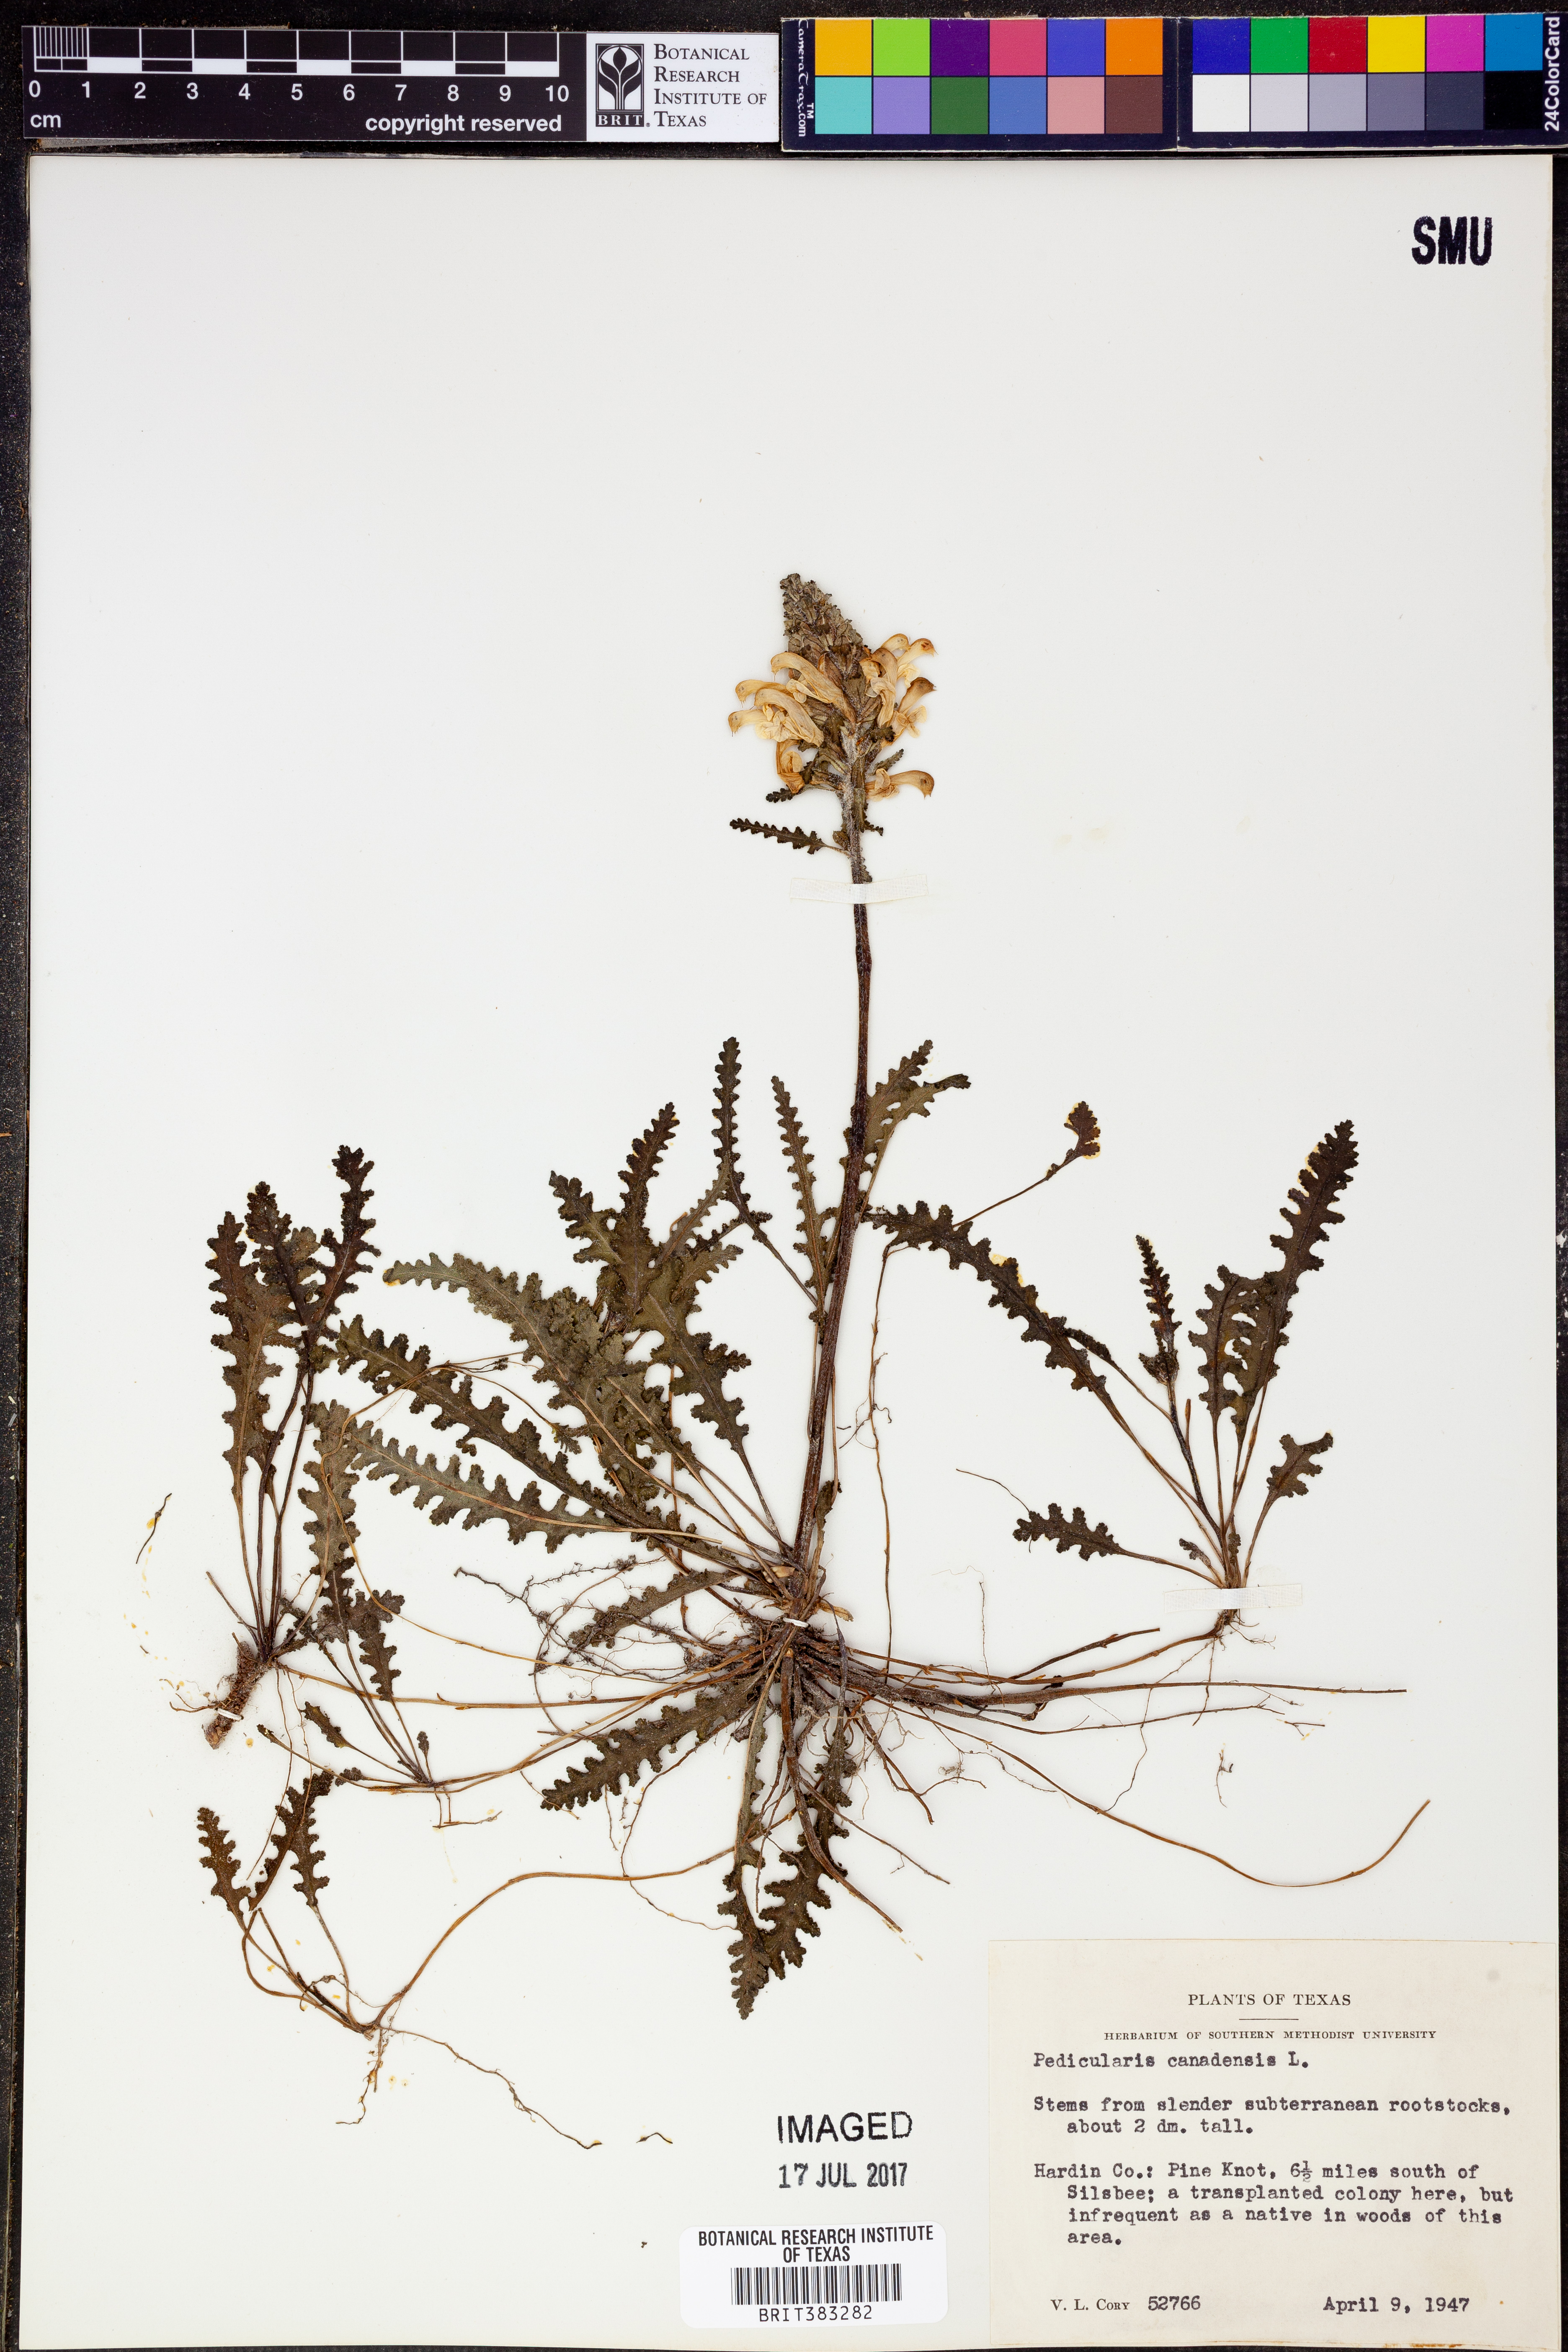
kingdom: Plantae
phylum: Tracheophyta
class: Magnoliopsida
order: Lamiales
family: Orobanchaceae
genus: Pedicularis
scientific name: Pedicularis canadensis
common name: Early lousewort
